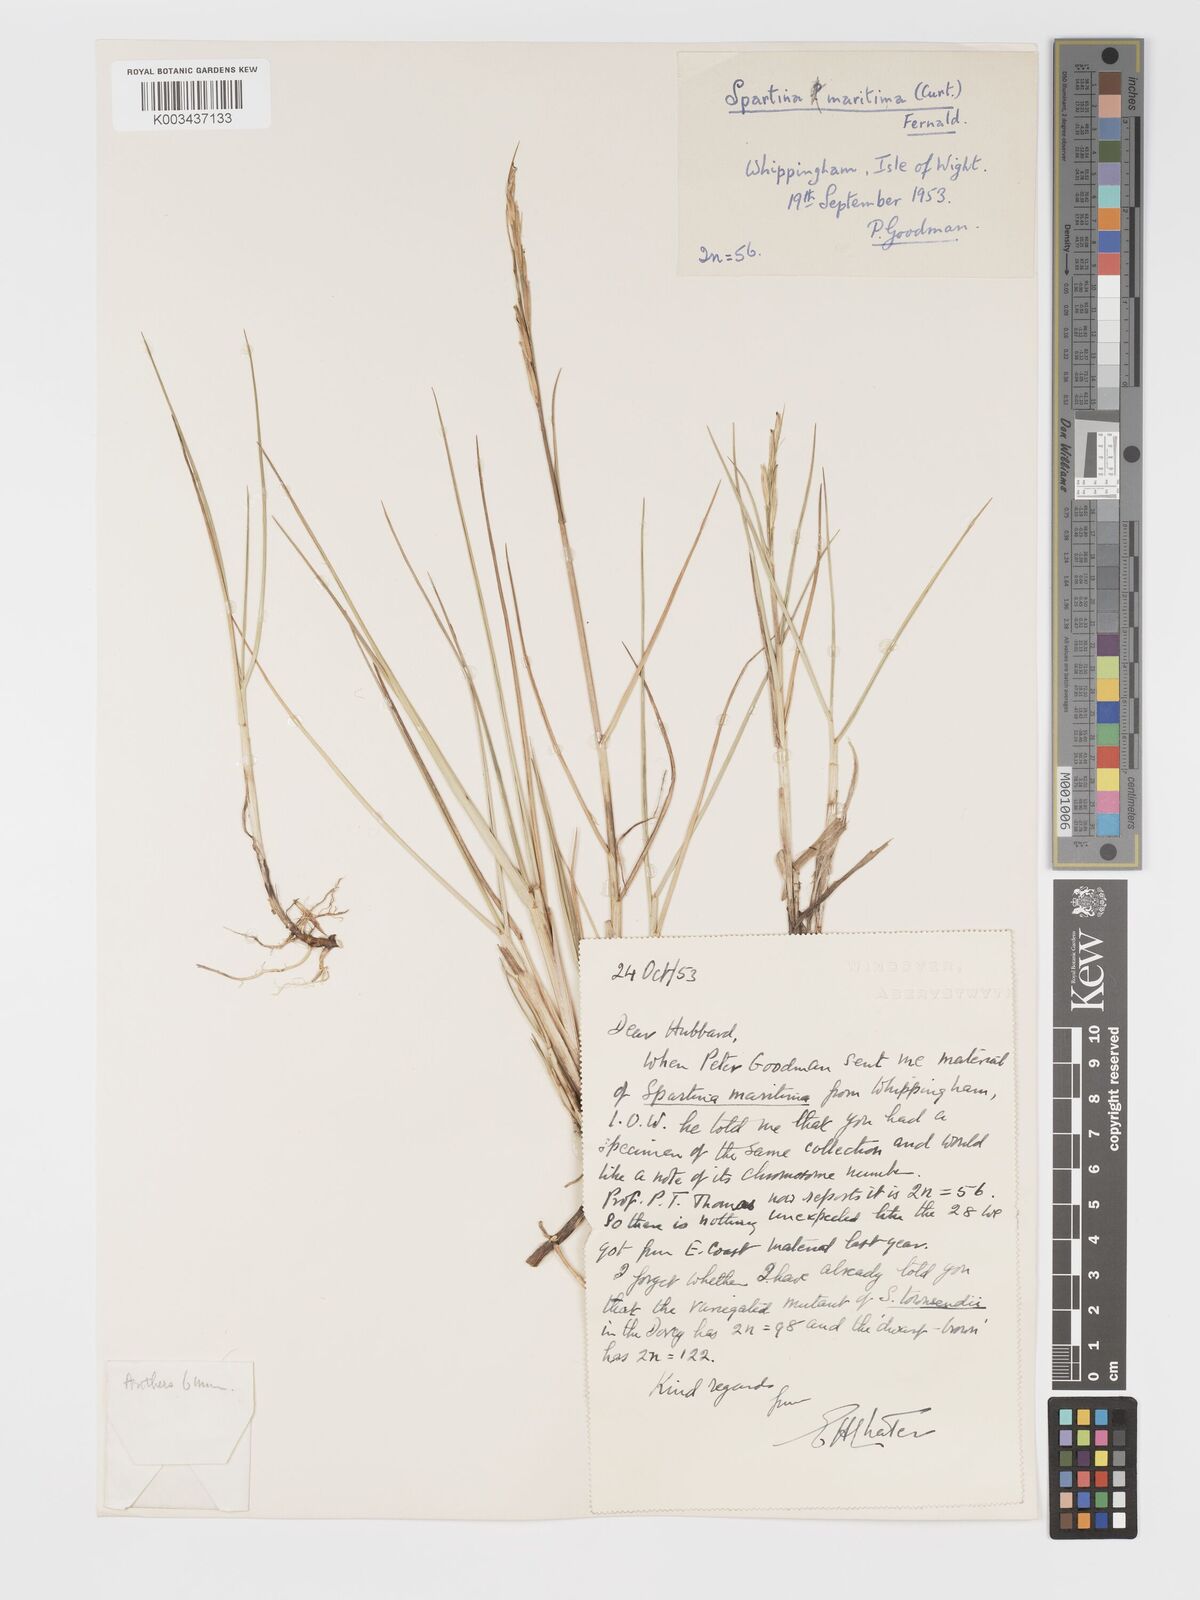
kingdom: Plantae
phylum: Tracheophyta
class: Liliopsida
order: Poales
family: Poaceae
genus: Sporobolus
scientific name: Sporobolus maritimus
